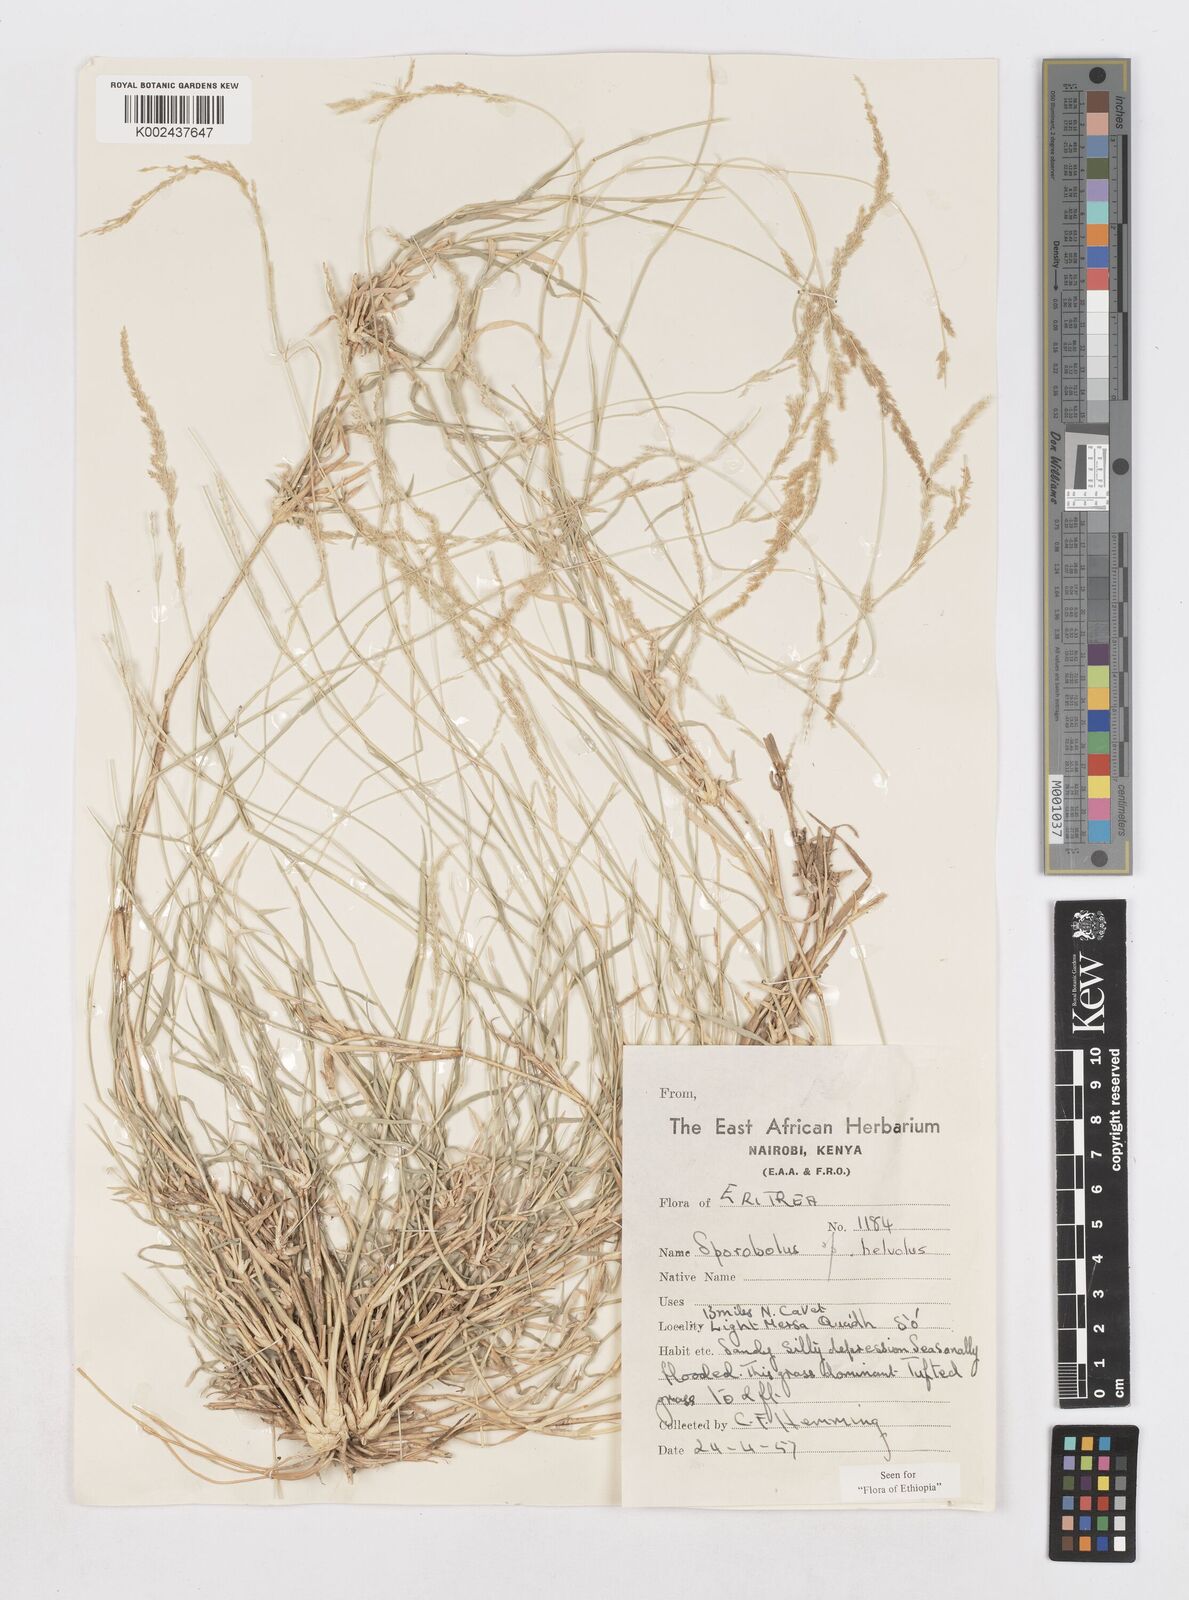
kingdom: Plantae
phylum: Tracheophyta
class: Liliopsida
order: Poales
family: Poaceae
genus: Sporobolus
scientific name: Sporobolus helvolus
